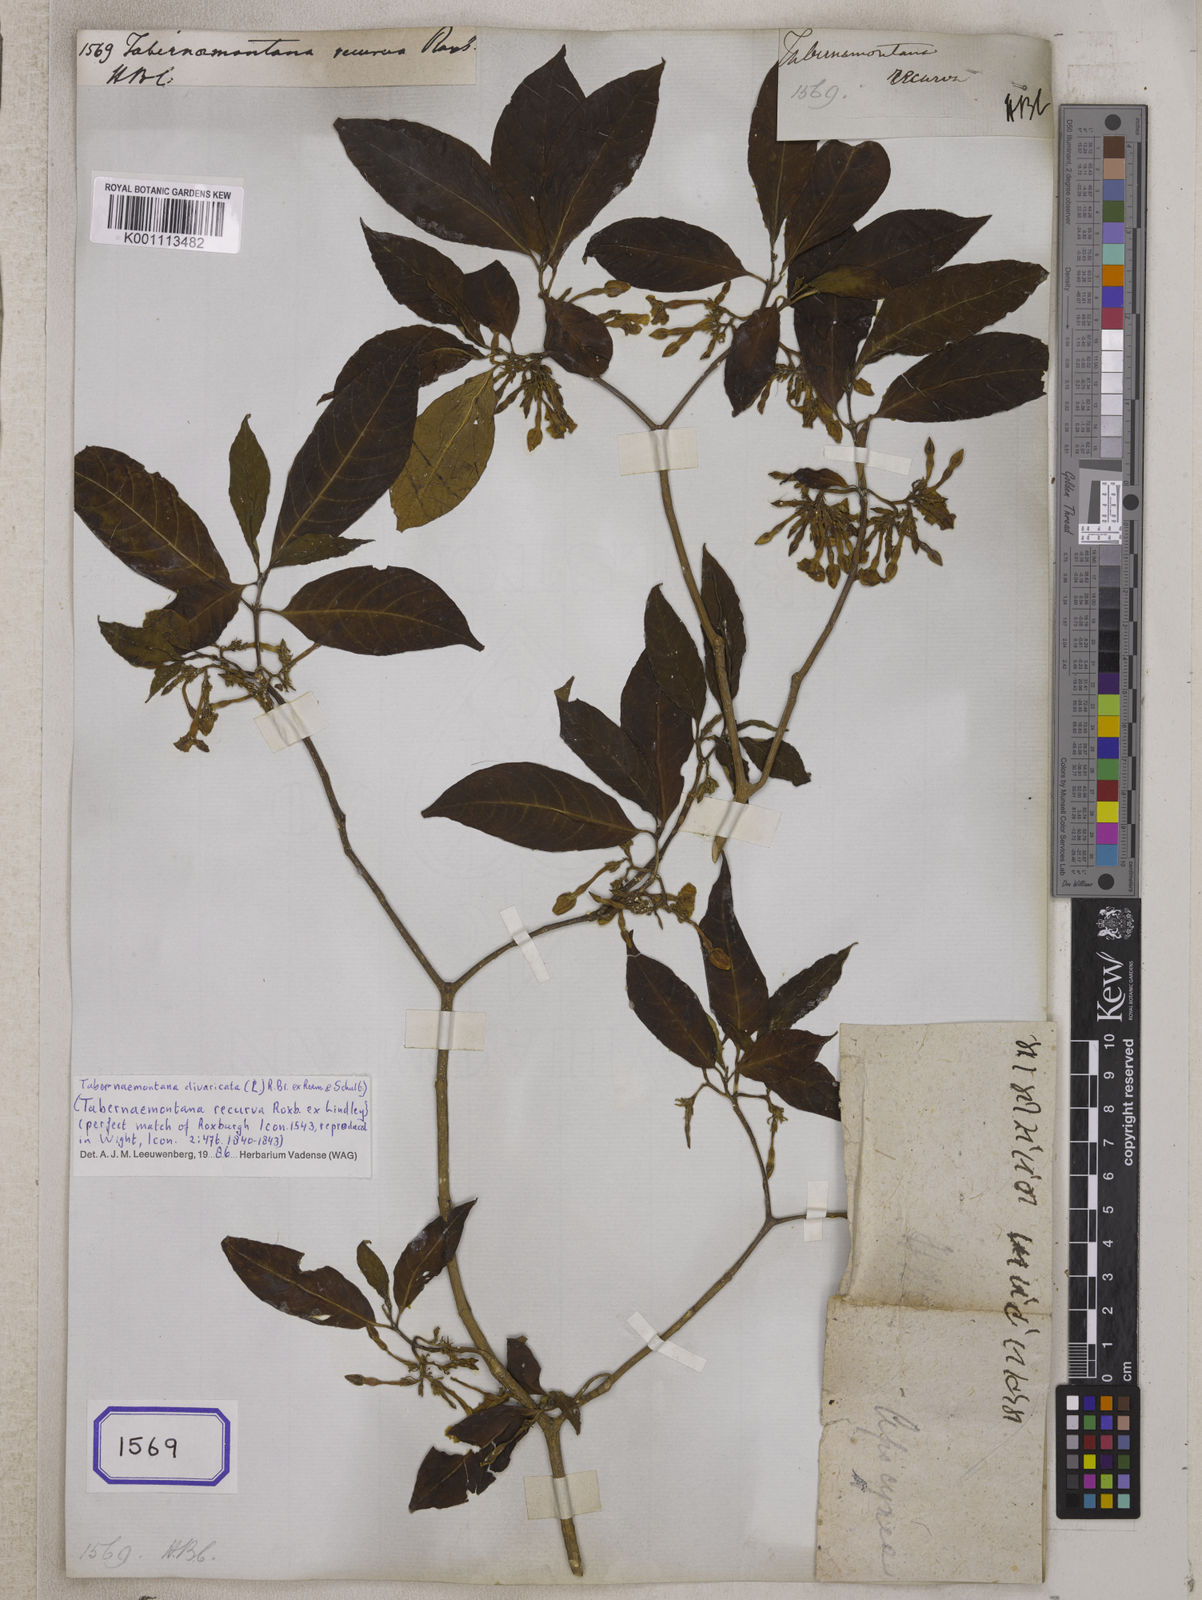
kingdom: Plantae
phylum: Tracheophyta
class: Magnoliopsida
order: Gentianales
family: Apocynaceae
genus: Tabernaemontana
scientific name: Tabernaemontana
